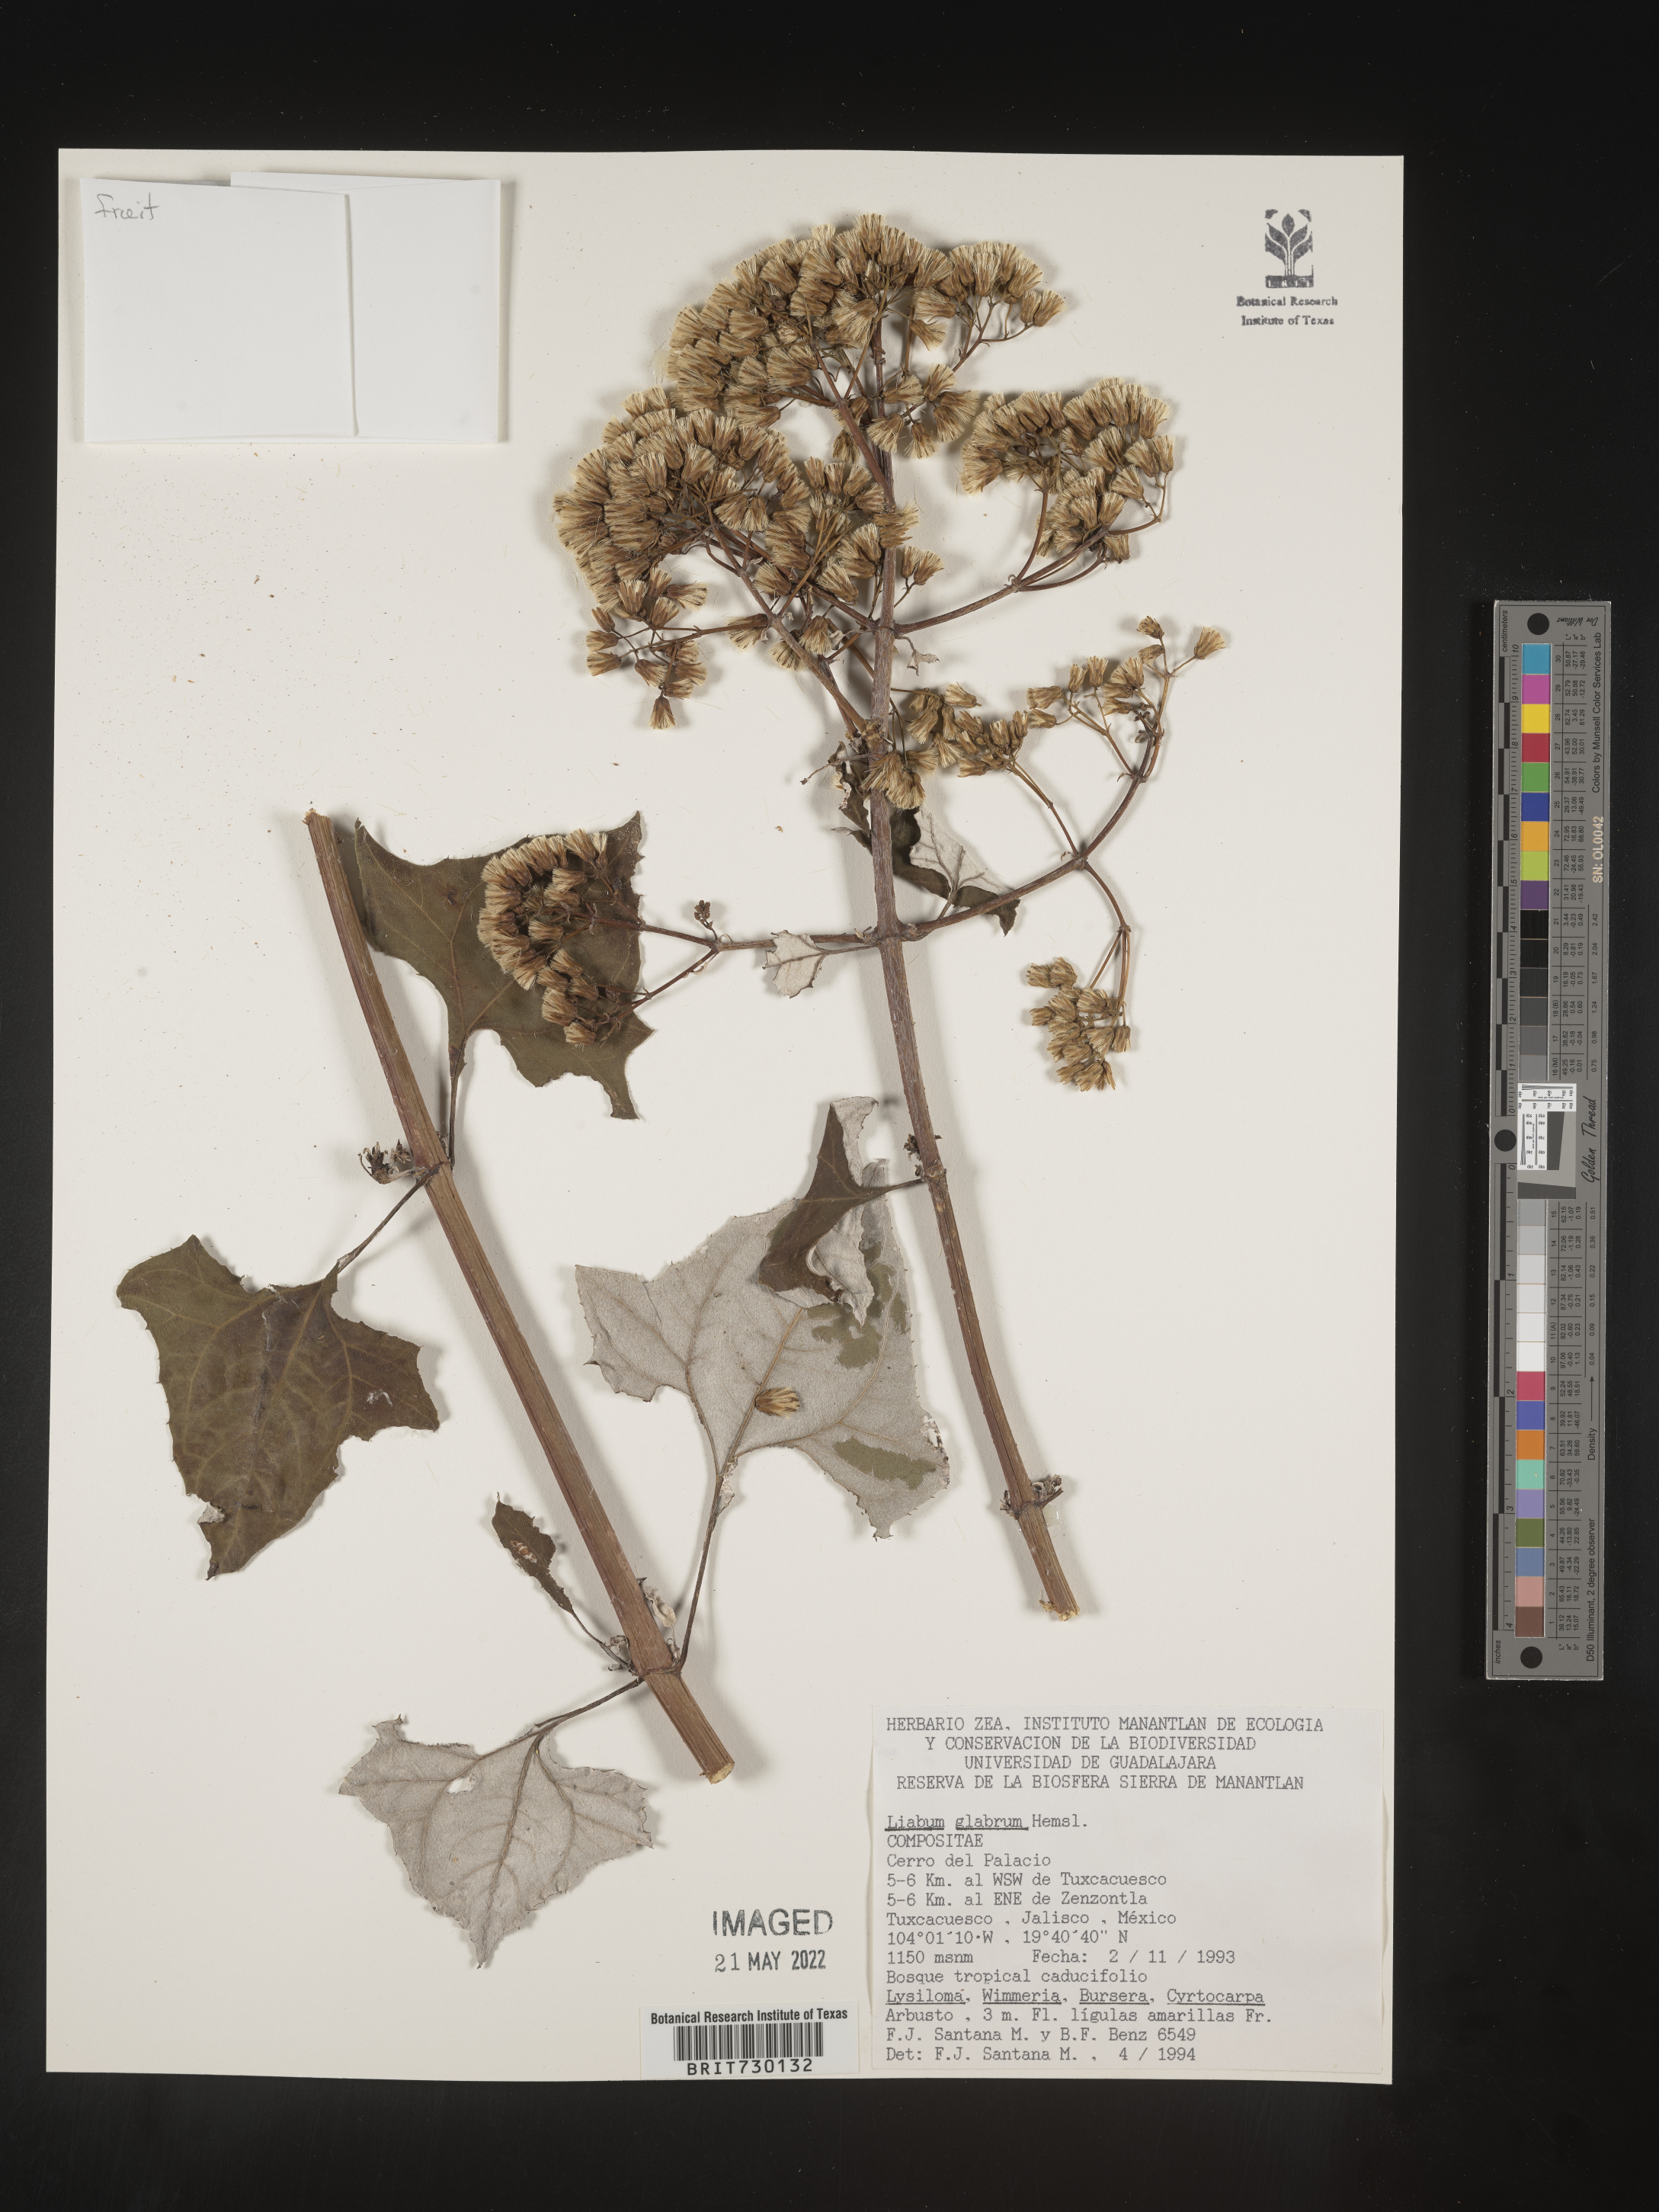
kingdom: Plantae
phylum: Tracheophyta
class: Magnoliopsida
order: Asterales
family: Asteraceae
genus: Liabum
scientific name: Liabum
